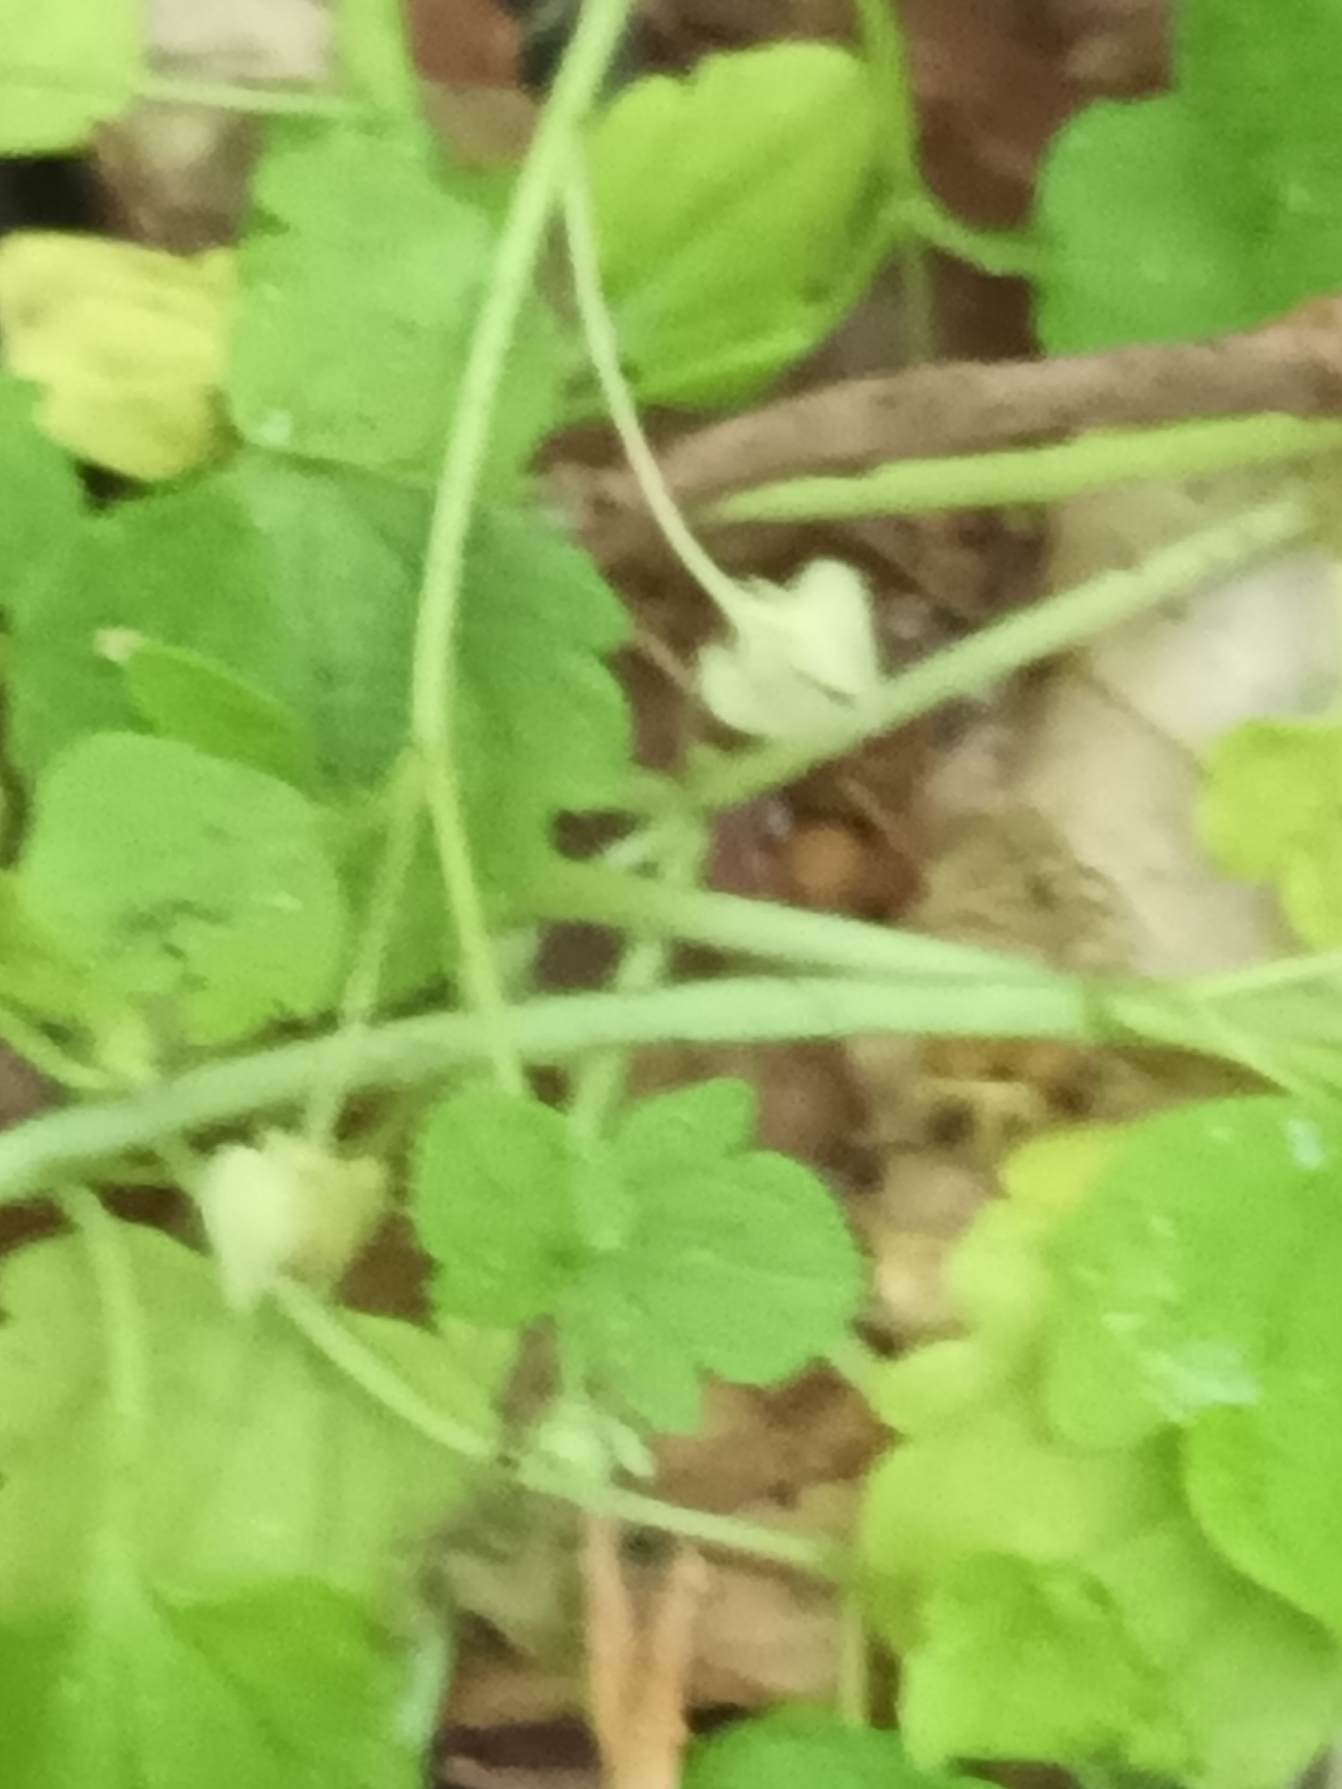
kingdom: Plantae
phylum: Tracheophyta
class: Magnoliopsida
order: Lamiales
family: Plantaginaceae
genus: Veronica
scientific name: Veronica sublobata
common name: Krat-ærenpris
